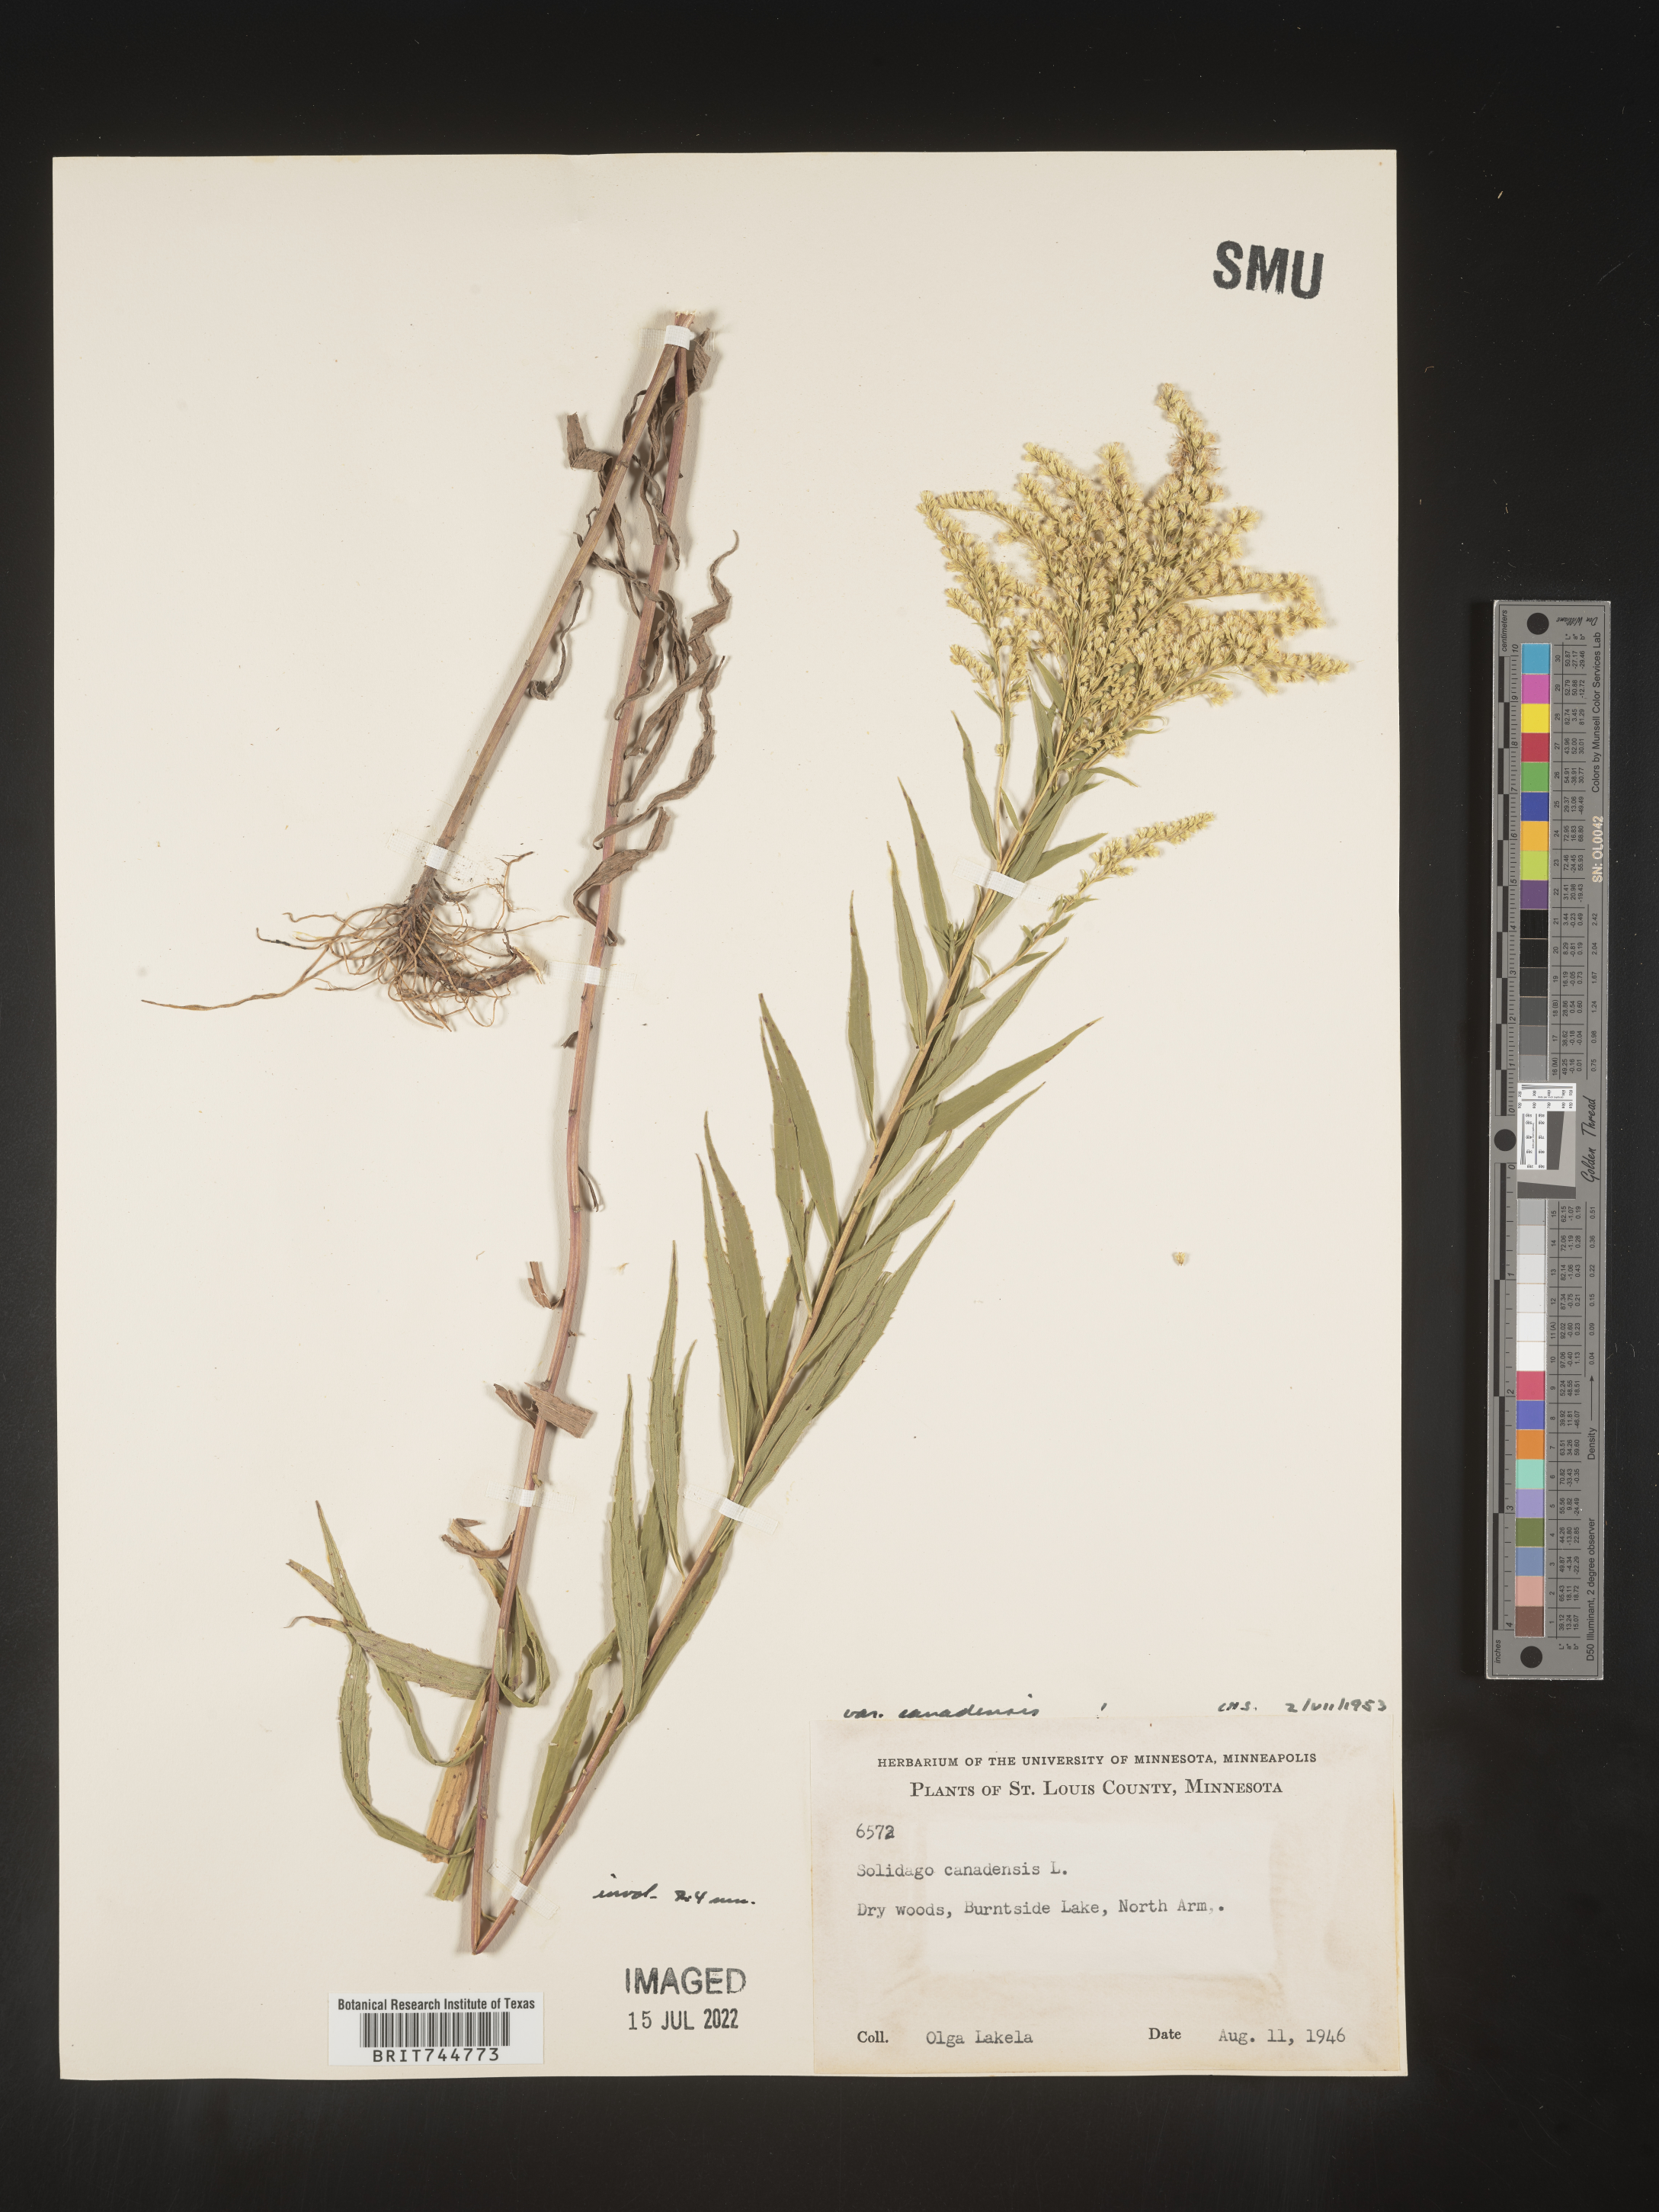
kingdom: Plantae
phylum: Tracheophyta
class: Magnoliopsida
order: Asterales
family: Asteraceae
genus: Solidago
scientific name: Solidago canadensis
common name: Canada goldenrod
